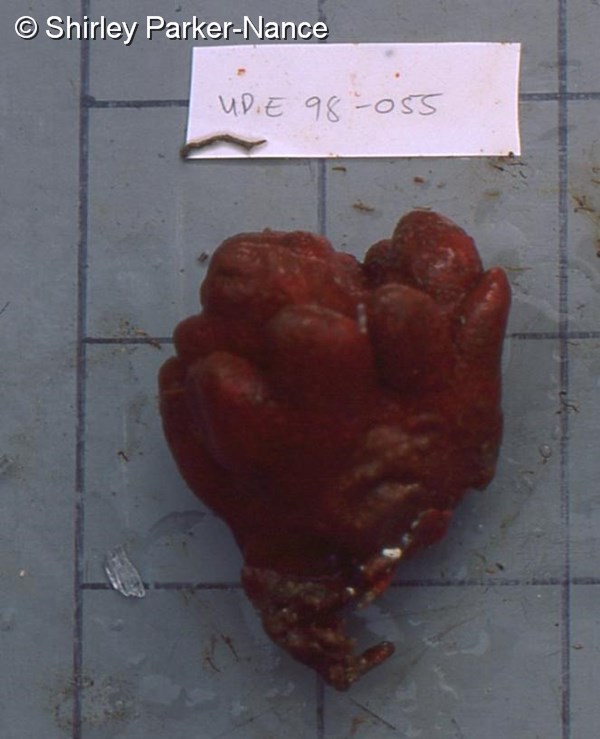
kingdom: Animalia
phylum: Chordata
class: Ascidiacea
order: Aplousobranchia
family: Pseudodistomidae
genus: Pseudodistoma
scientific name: Pseudodistoma
